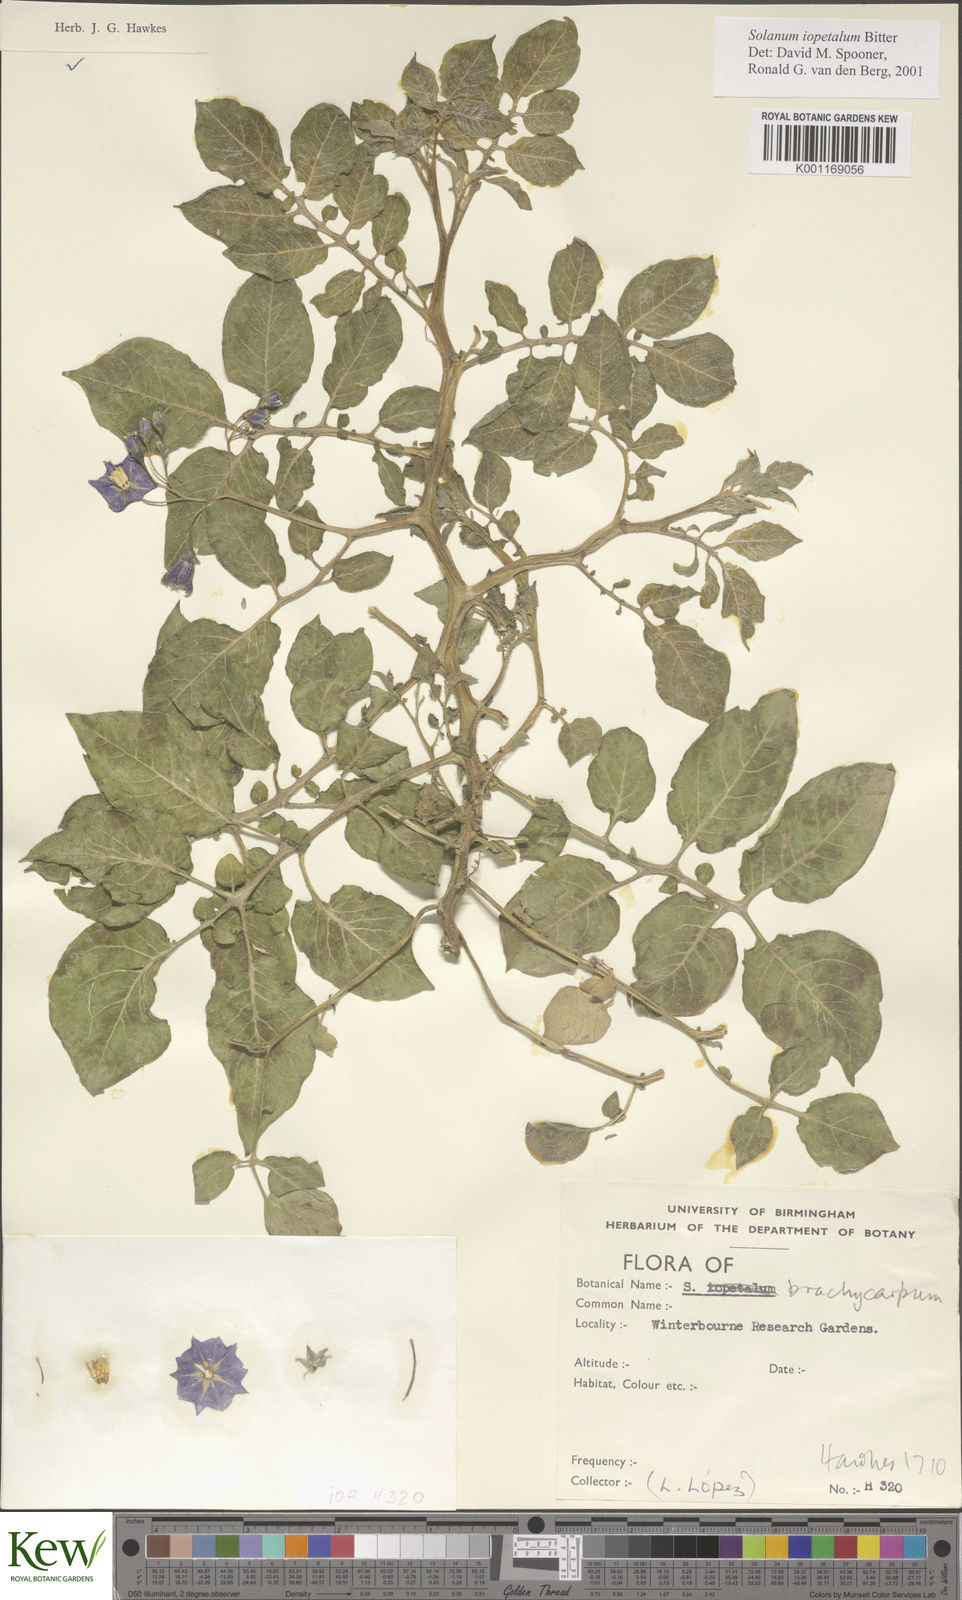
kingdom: Plantae
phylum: Tracheophyta
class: Magnoliopsida
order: Solanales
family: Solanaceae
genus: Solanum
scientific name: Solanum iopetalum
